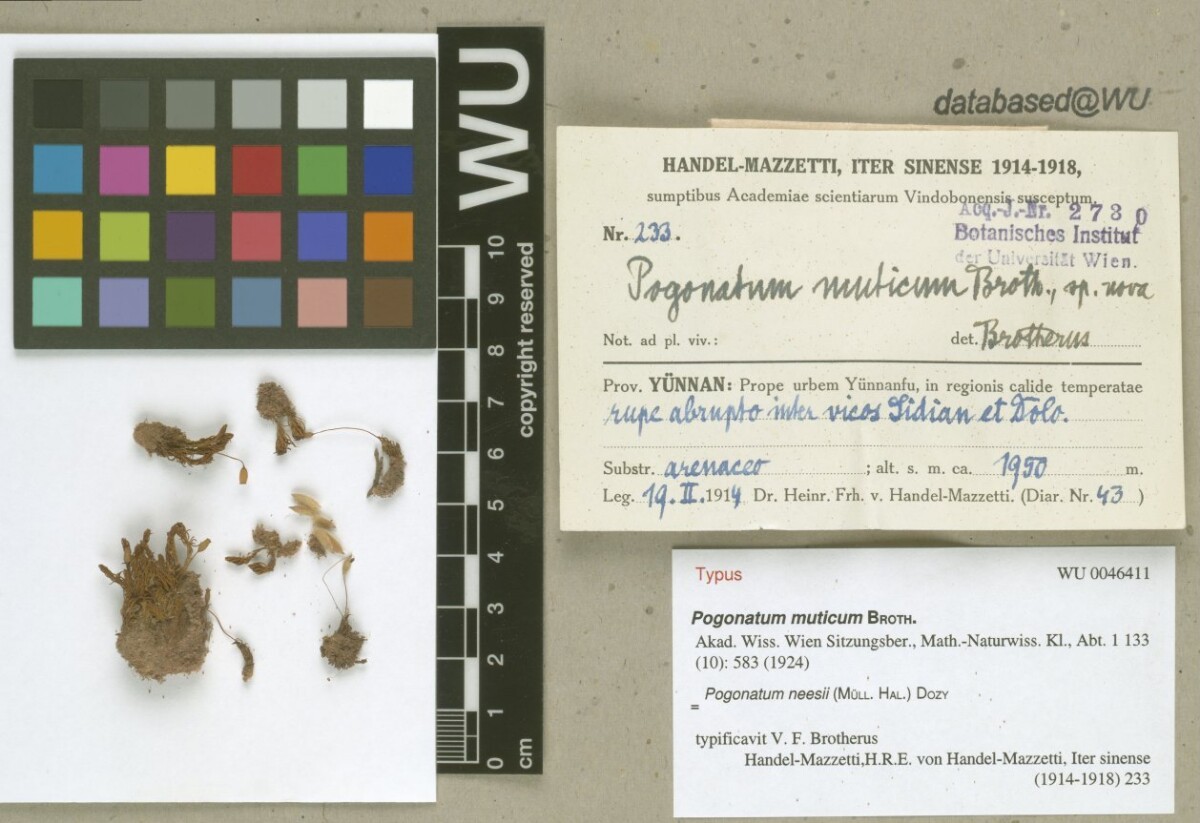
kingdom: Plantae
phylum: Bryophyta
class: Polytrichopsida
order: Polytrichales
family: Polytrichaceae
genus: Pogonatum
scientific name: Pogonatum neesii
